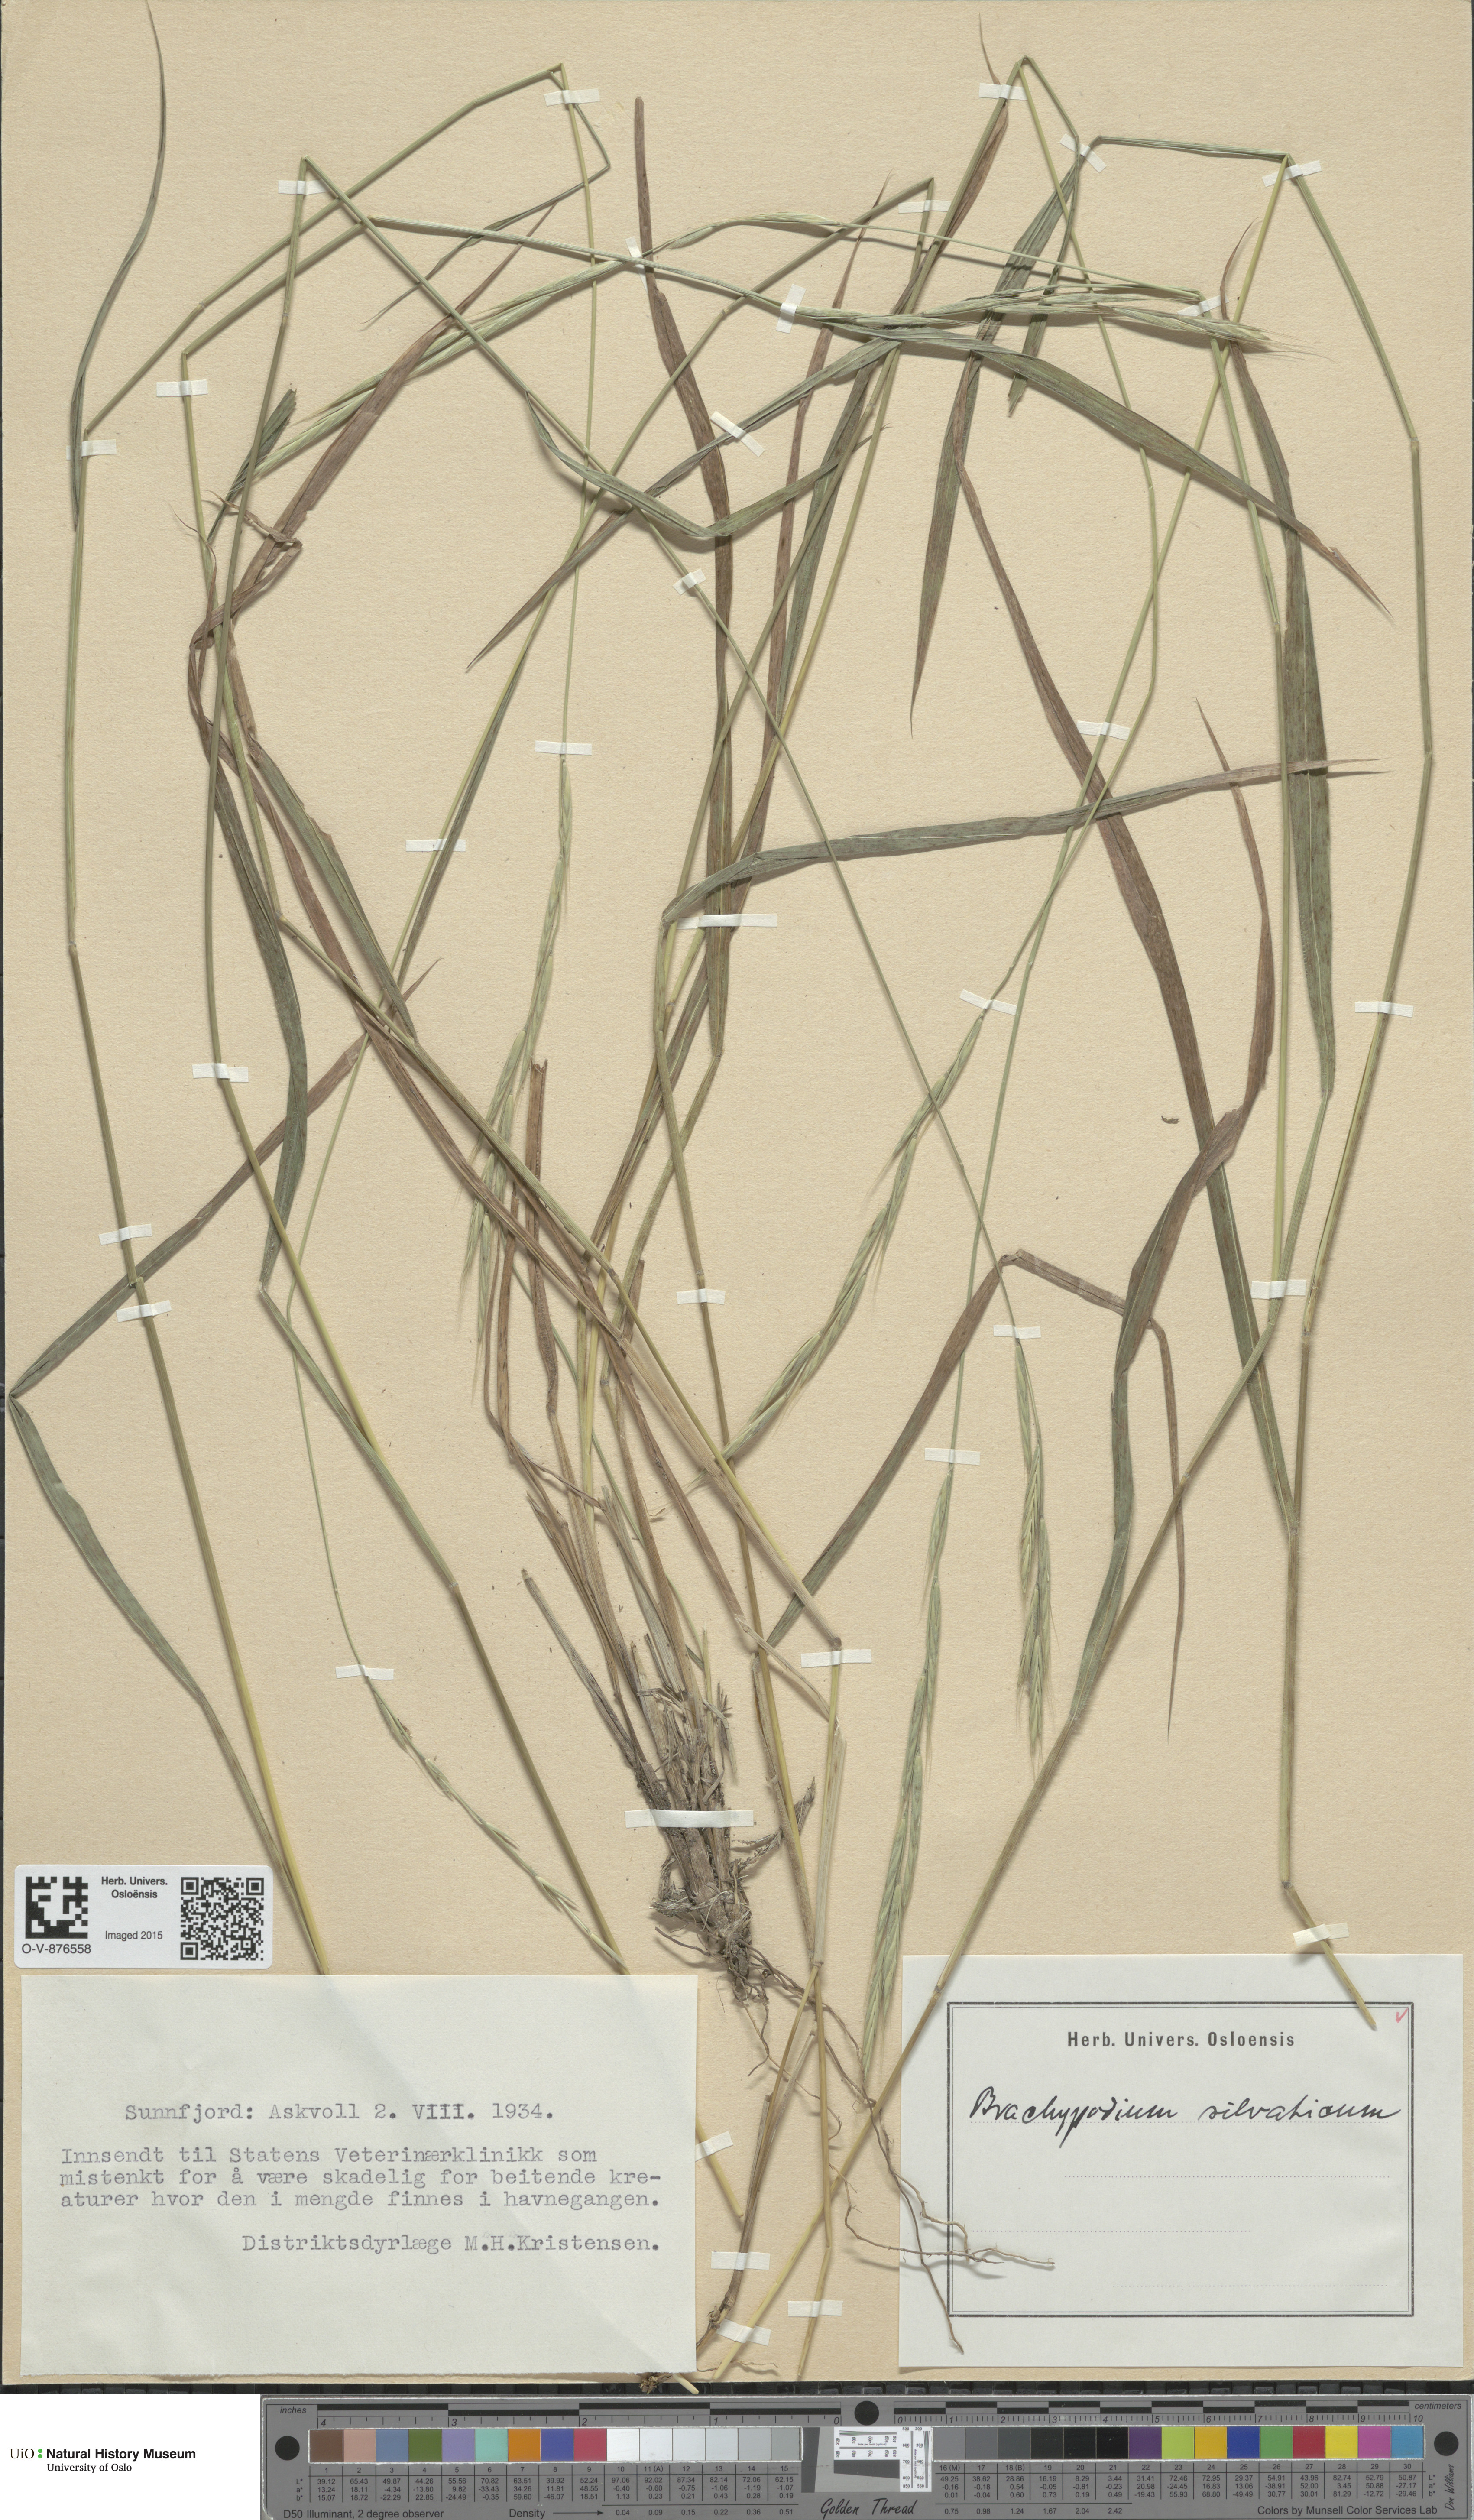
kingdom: Plantae
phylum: Tracheophyta
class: Liliopsida
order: Poales
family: Poaceae
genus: Brachypodium
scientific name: Brachypodium sylvaticum
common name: False-brome
